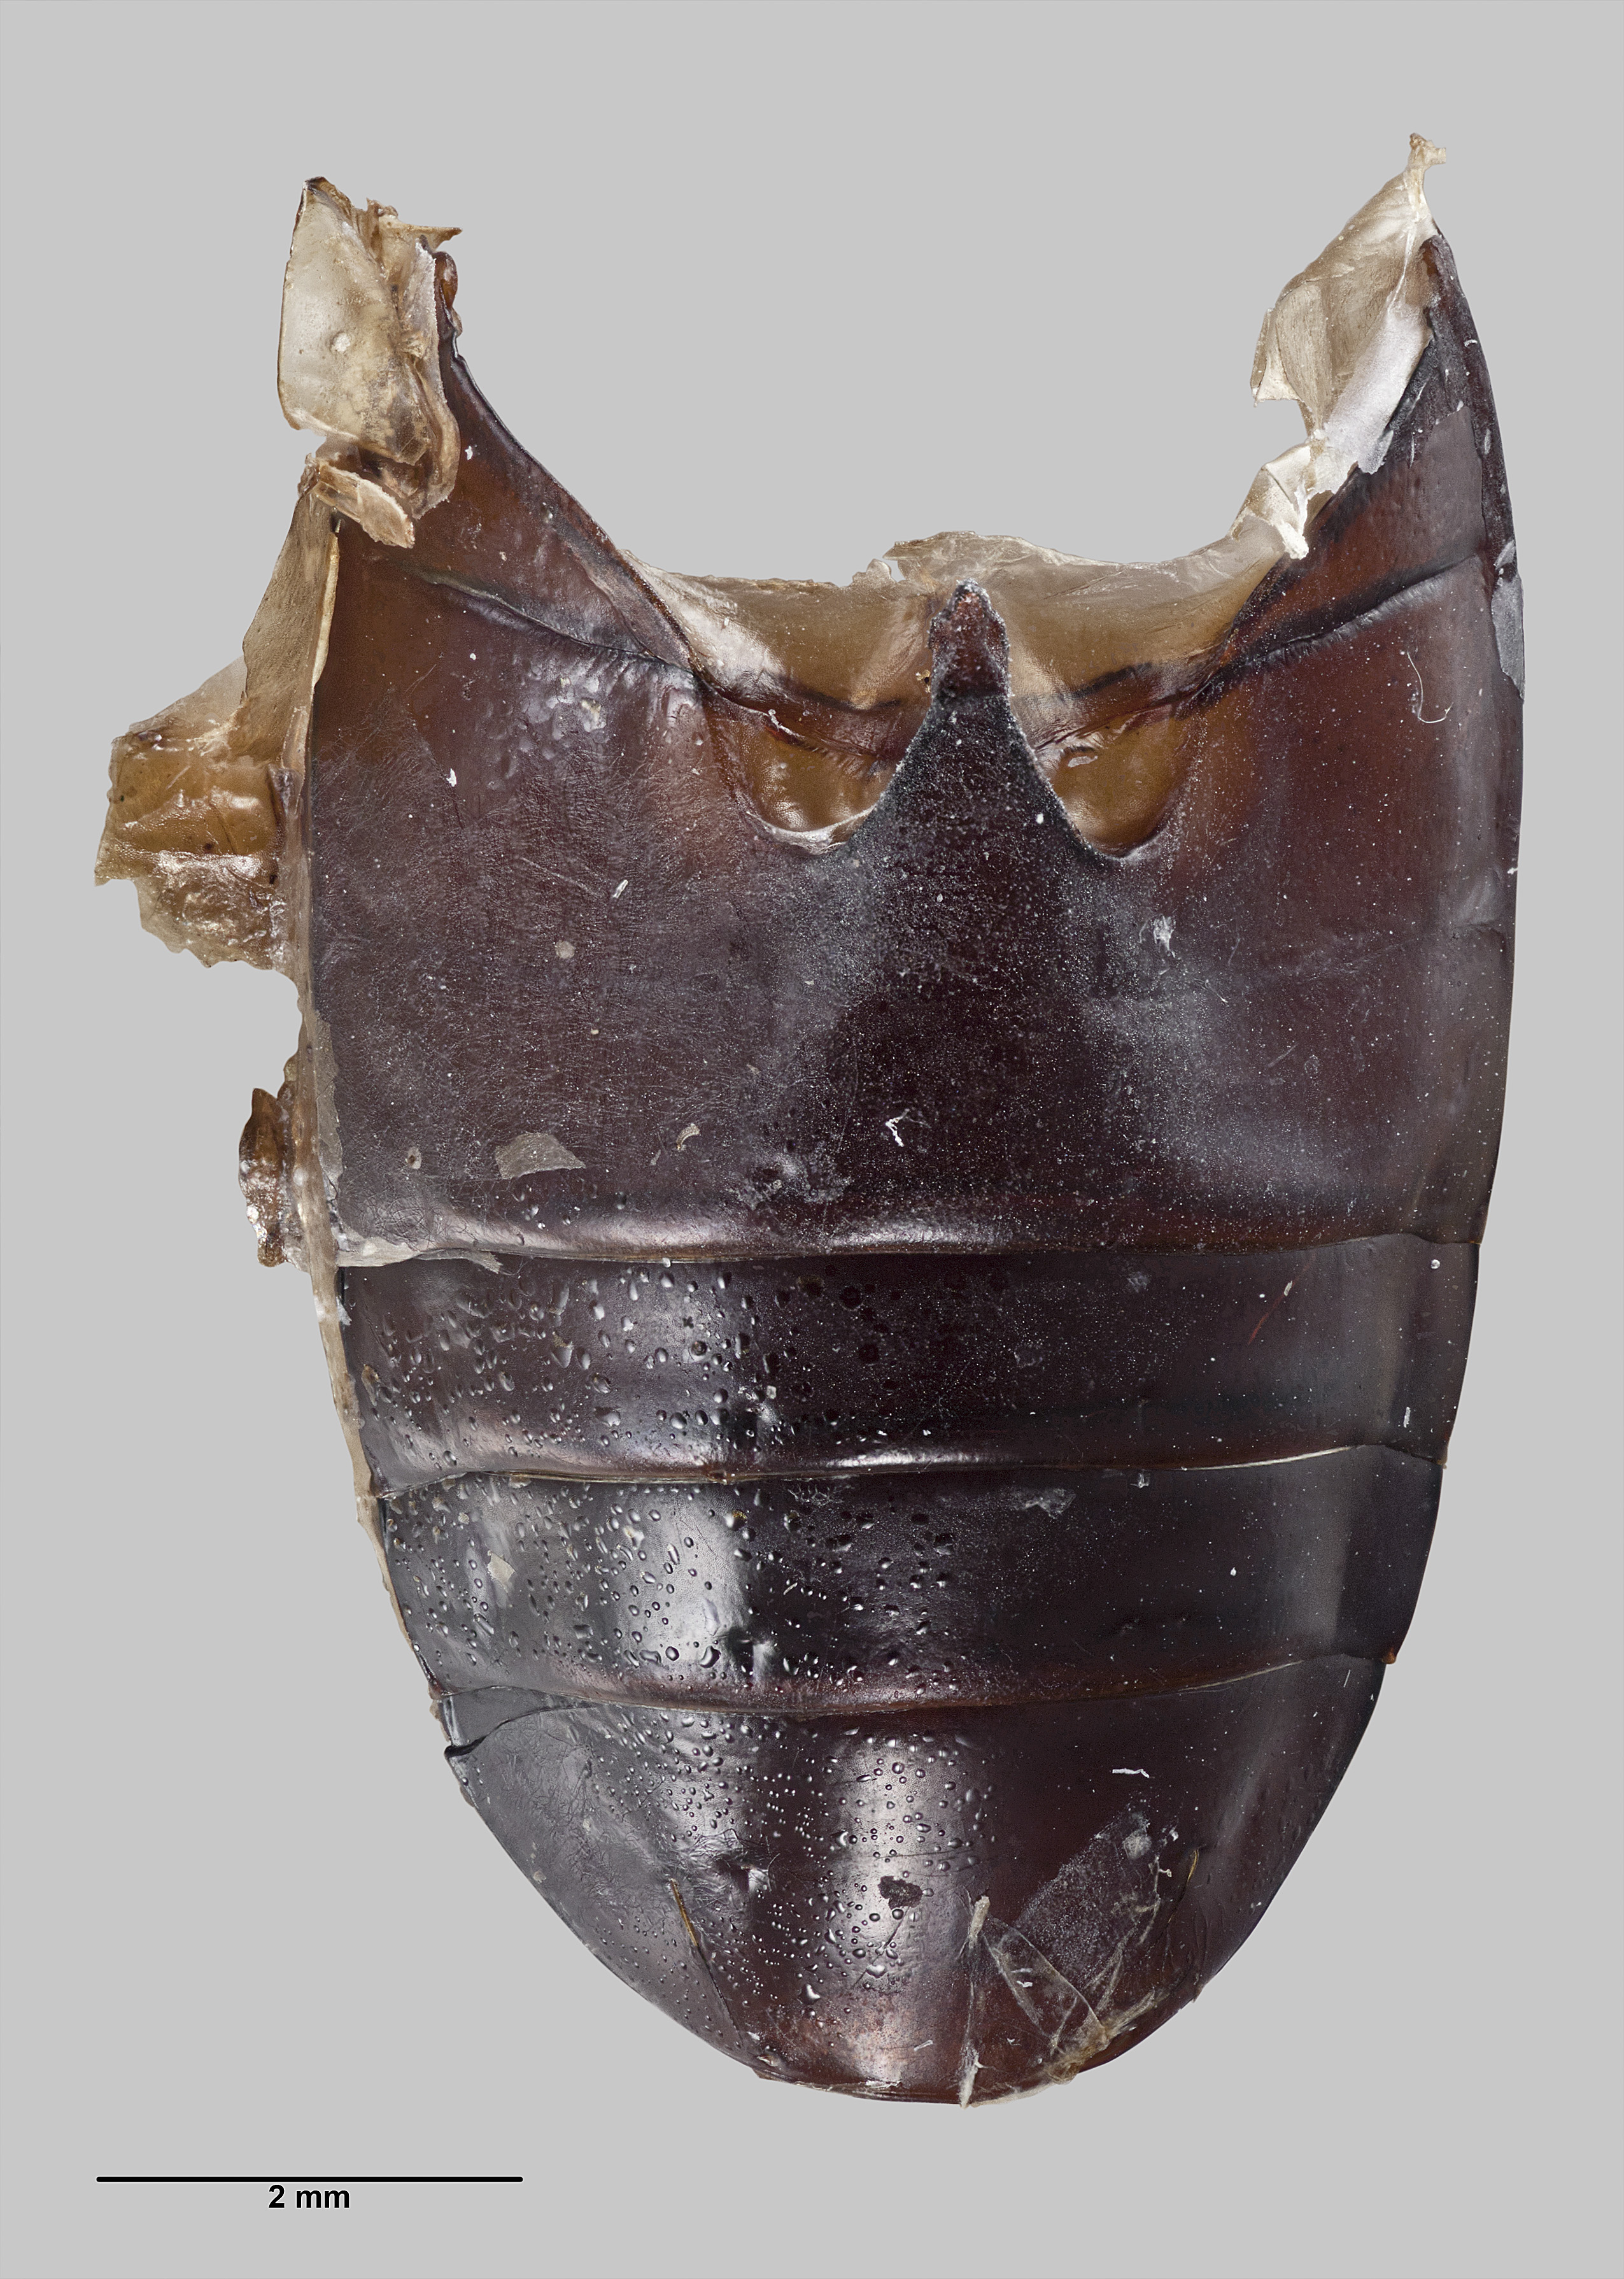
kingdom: Animalia
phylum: Arthropoda
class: Insecta
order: Coleoptera
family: Carabidae
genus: Oregus
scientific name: Oregus crypticus
